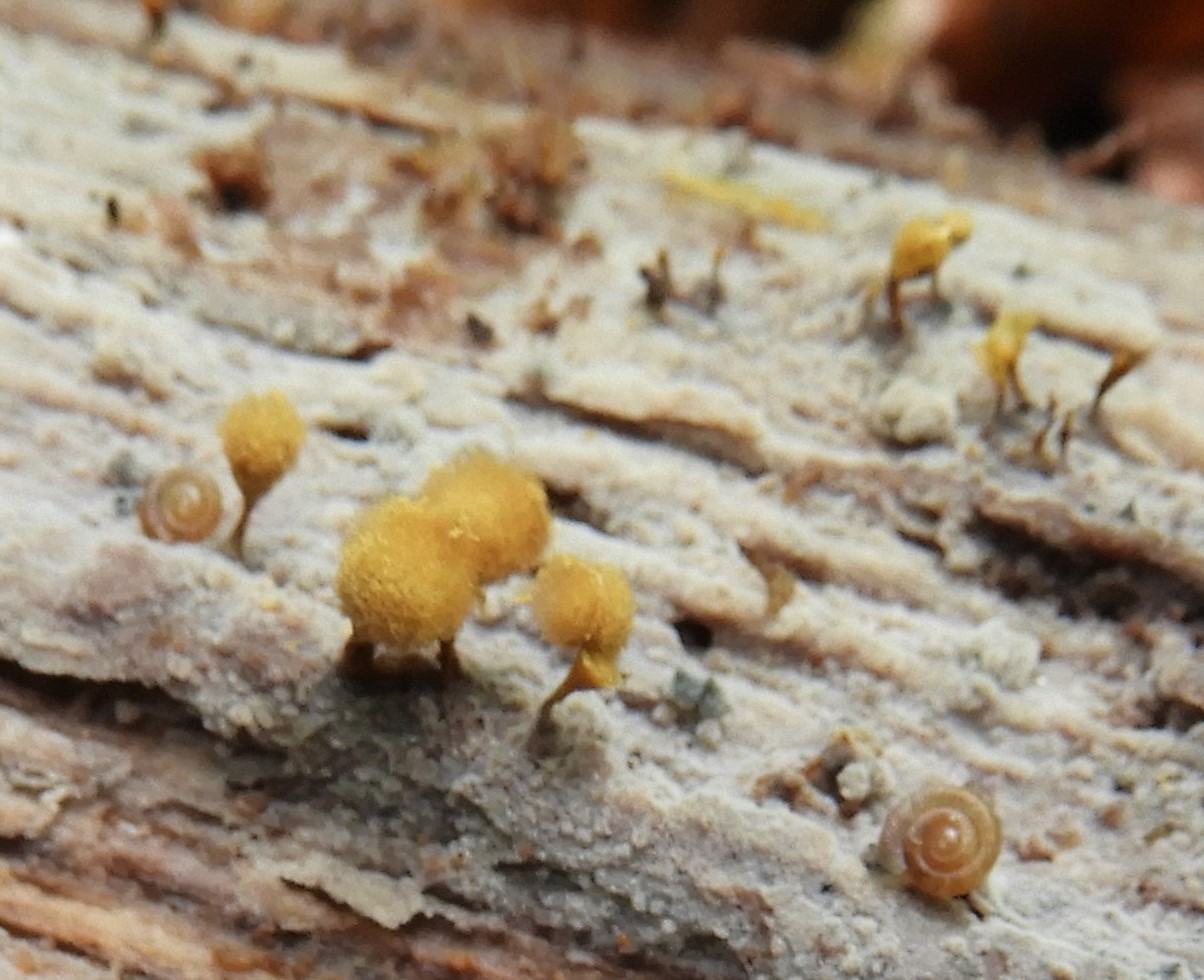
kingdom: Protozoa
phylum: Mycetozoa
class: Myxomycetes
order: Trichiales
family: Arcyriaceae
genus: Hemitrichia
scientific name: Hemitrichia clavata
